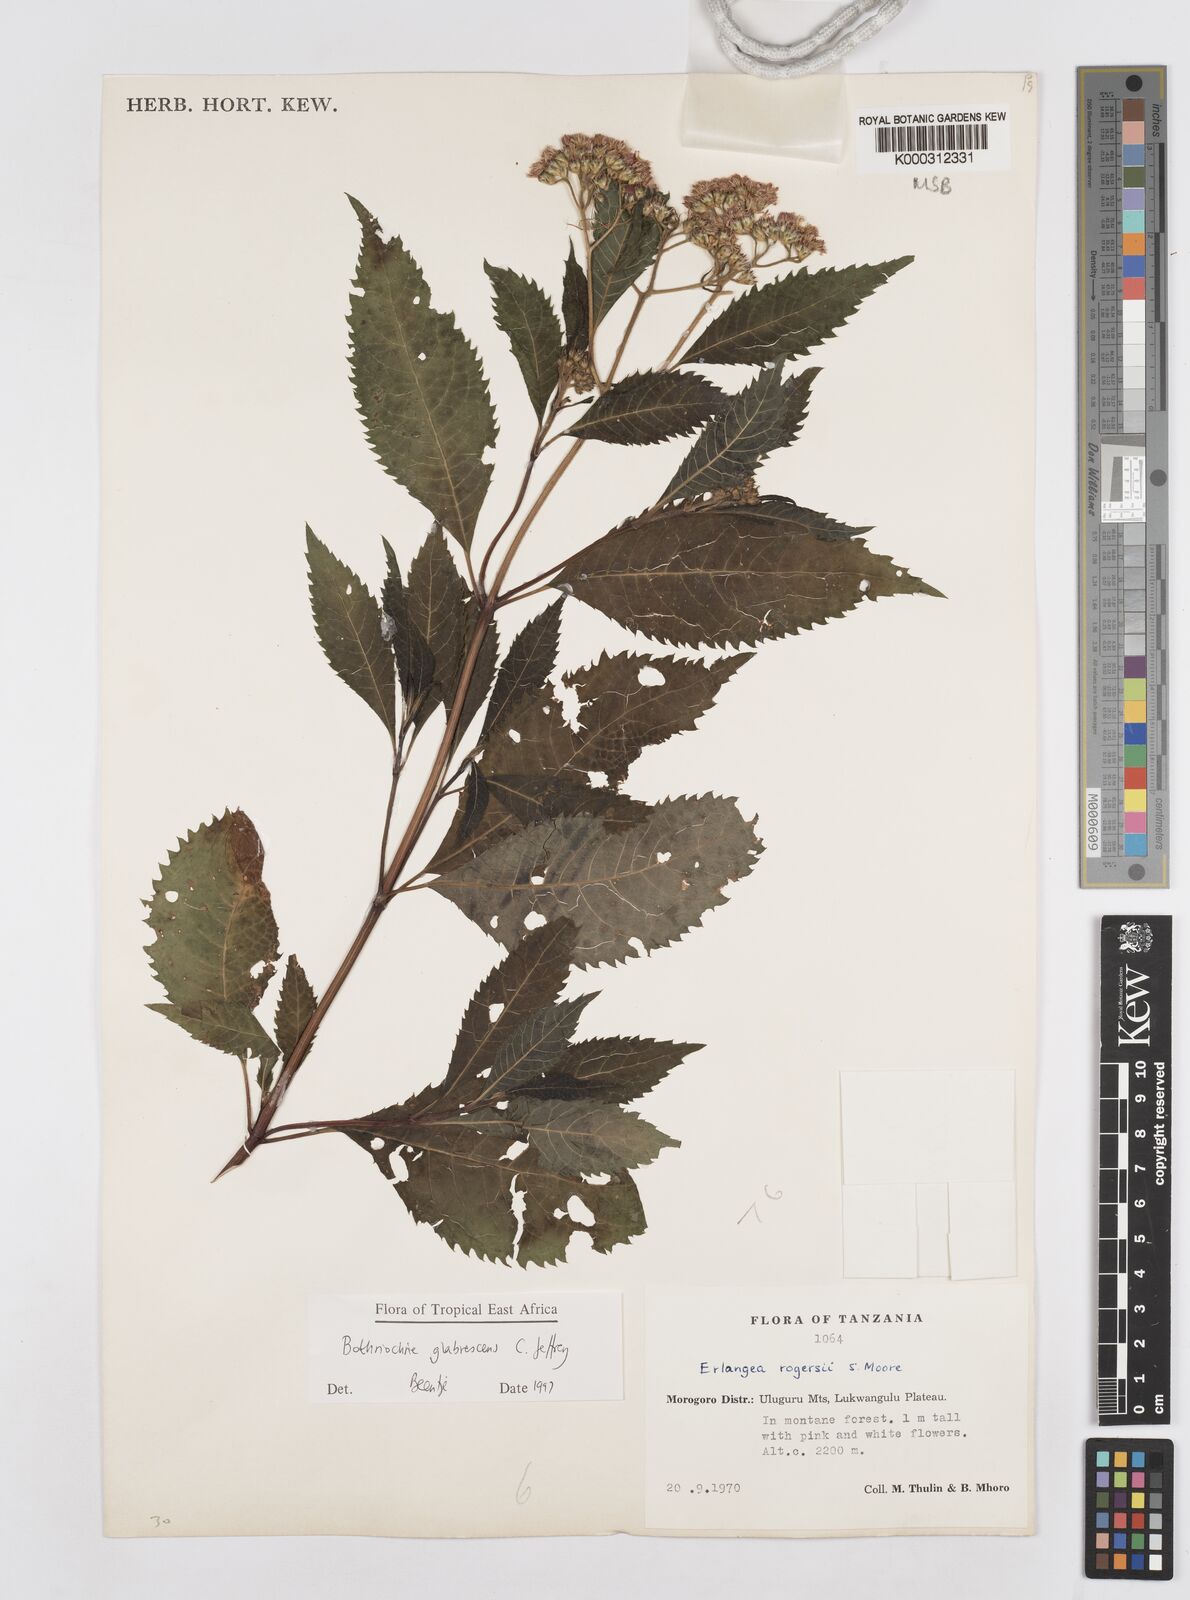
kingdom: Plantae
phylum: Tracheophyta
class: Magnoliopsida
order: Asterales
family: Asteraceae
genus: Bothriocline
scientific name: Bothriocline glabrescens
